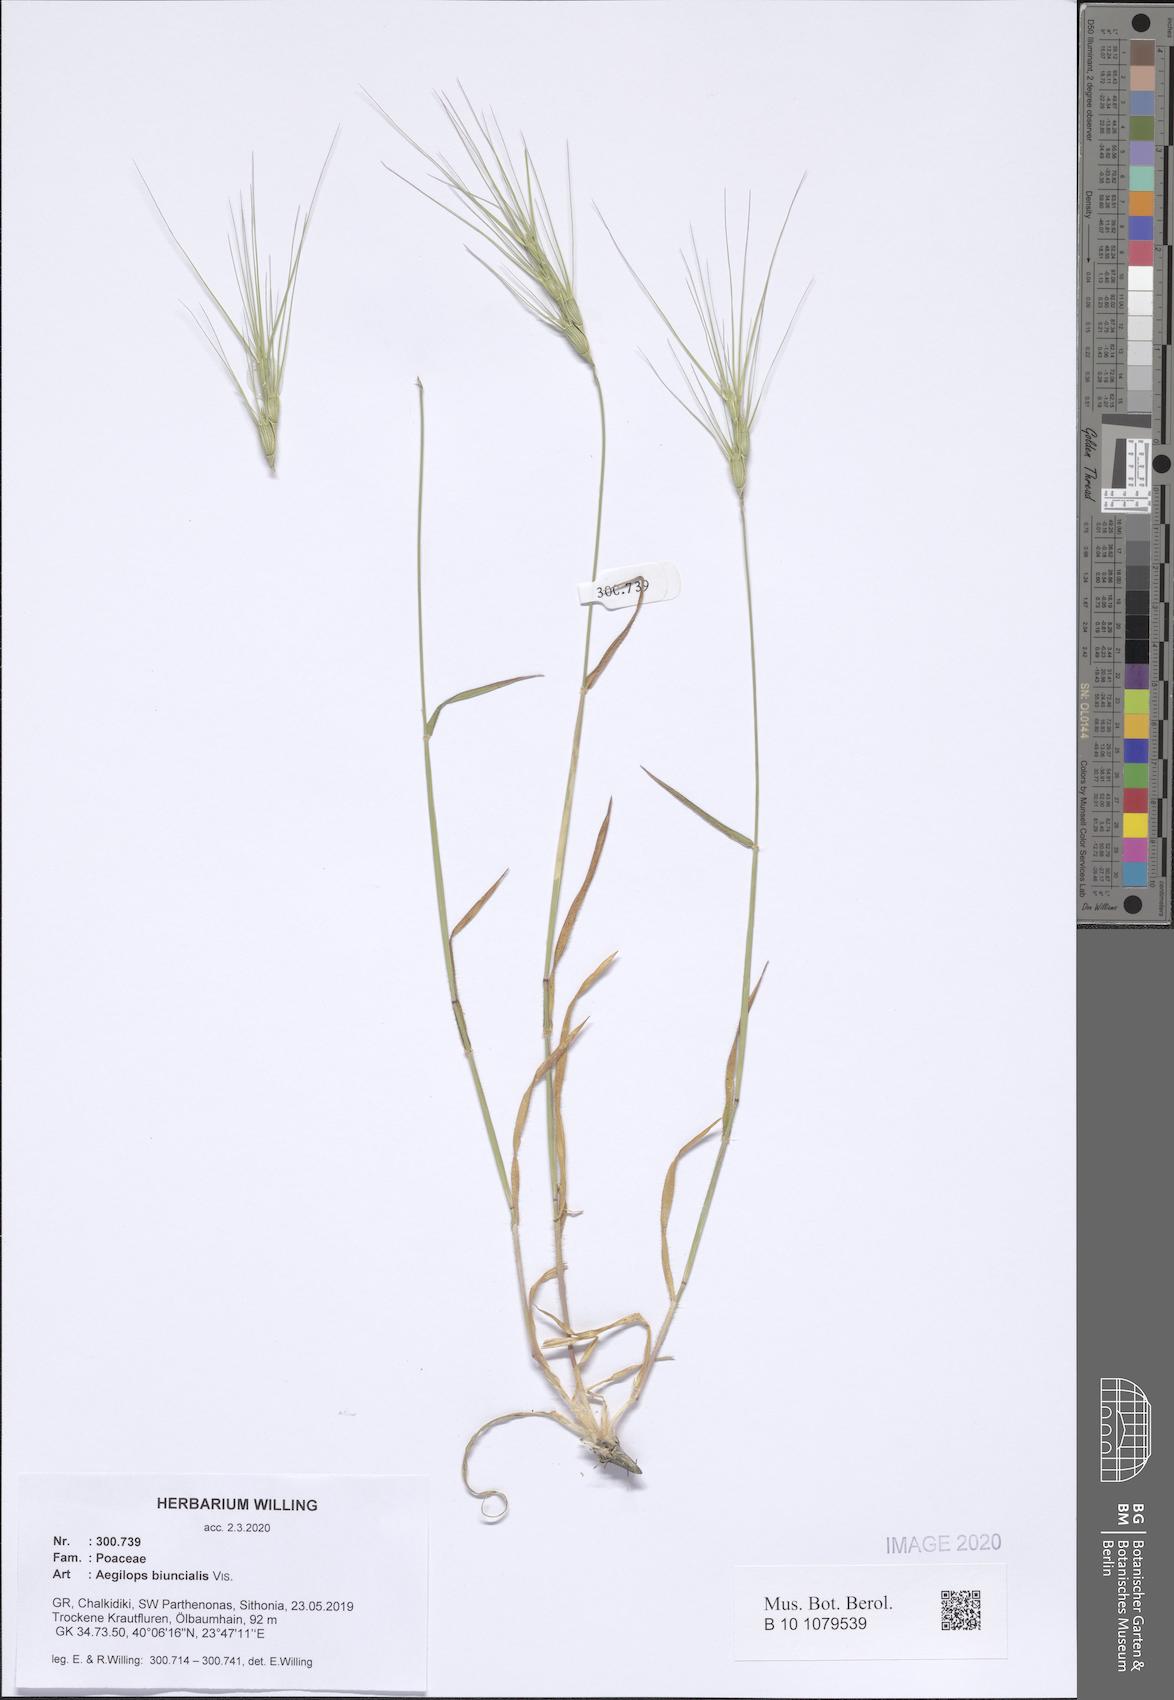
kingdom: Plantae
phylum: Tracheophyta
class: Liliopsida
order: Poales
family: Poaceae
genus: Aegilops
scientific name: Aegilops biuncialis
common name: Mediterranean aegilops
